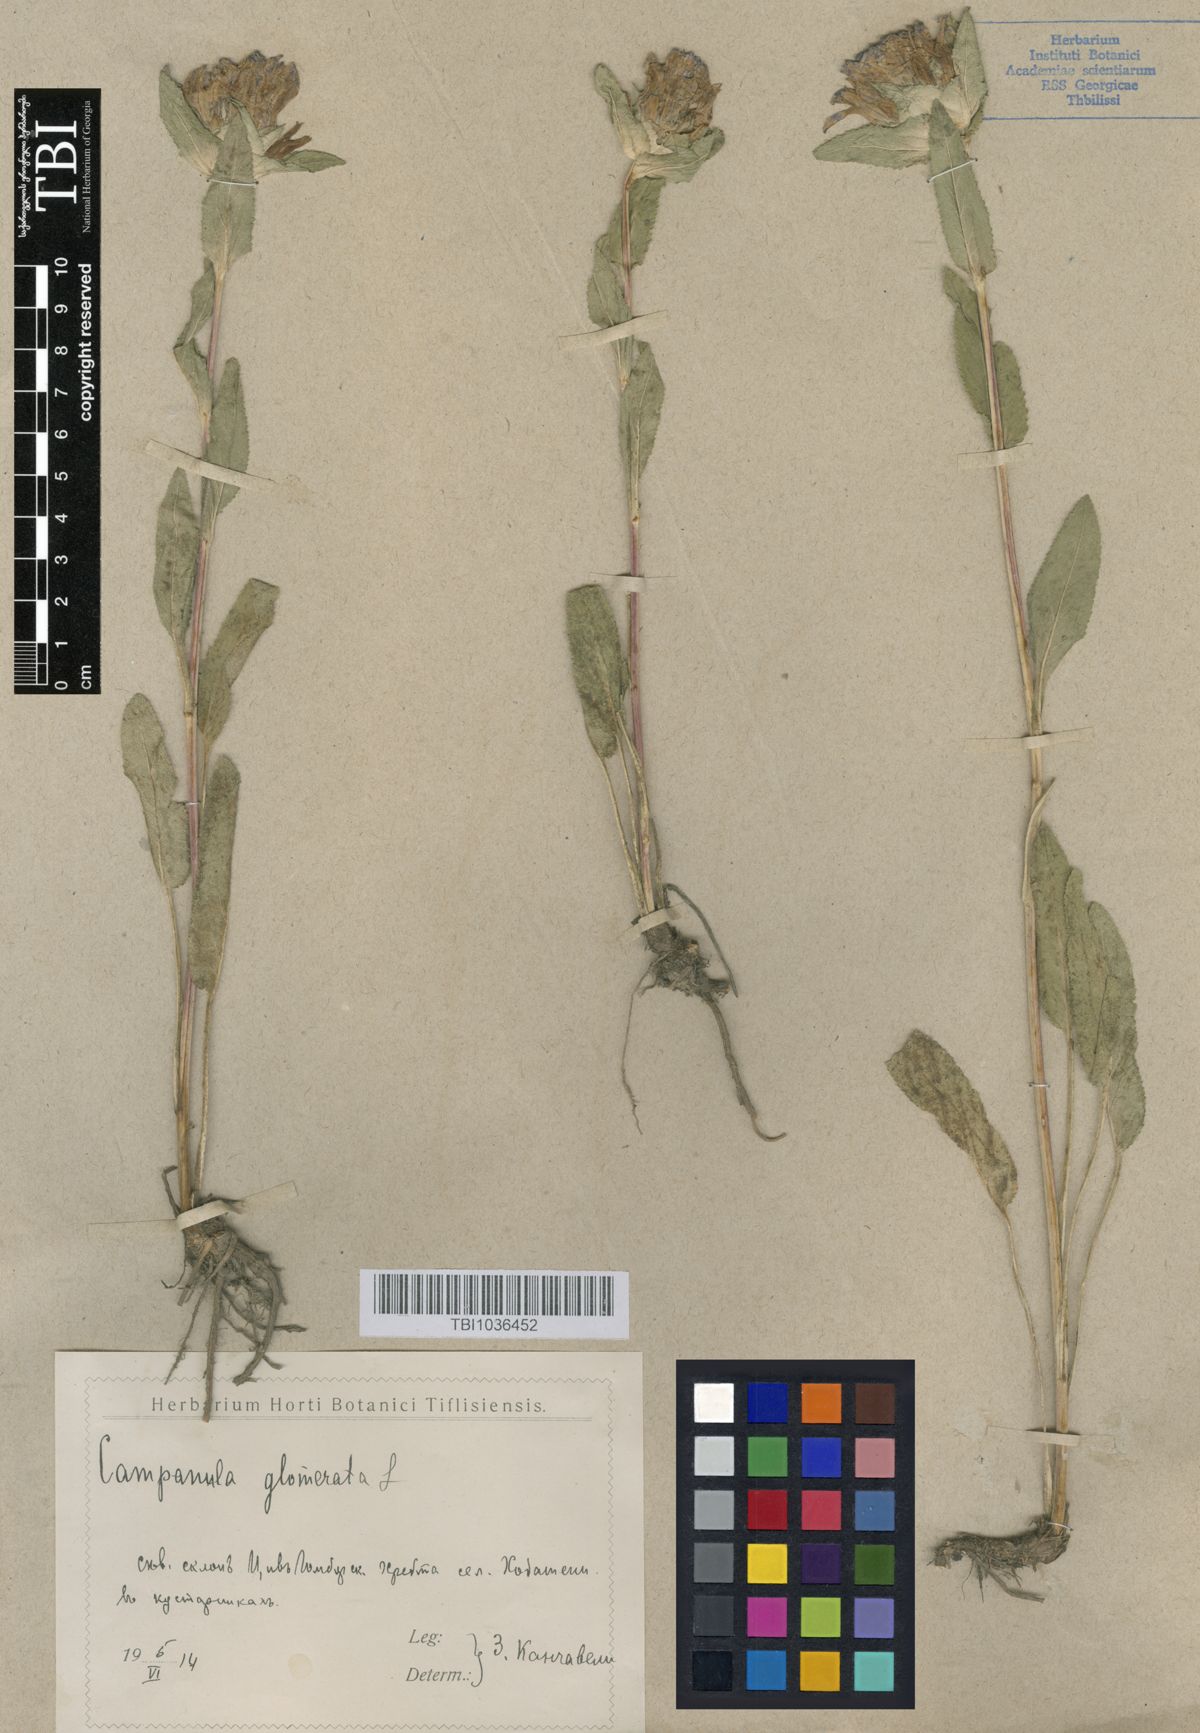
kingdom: Plantae
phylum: Tracheophyta
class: Magnoliopsida
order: Asterales
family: Campanulaceae
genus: Campanula
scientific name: Campanula glomerata
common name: Clustered bellflower
